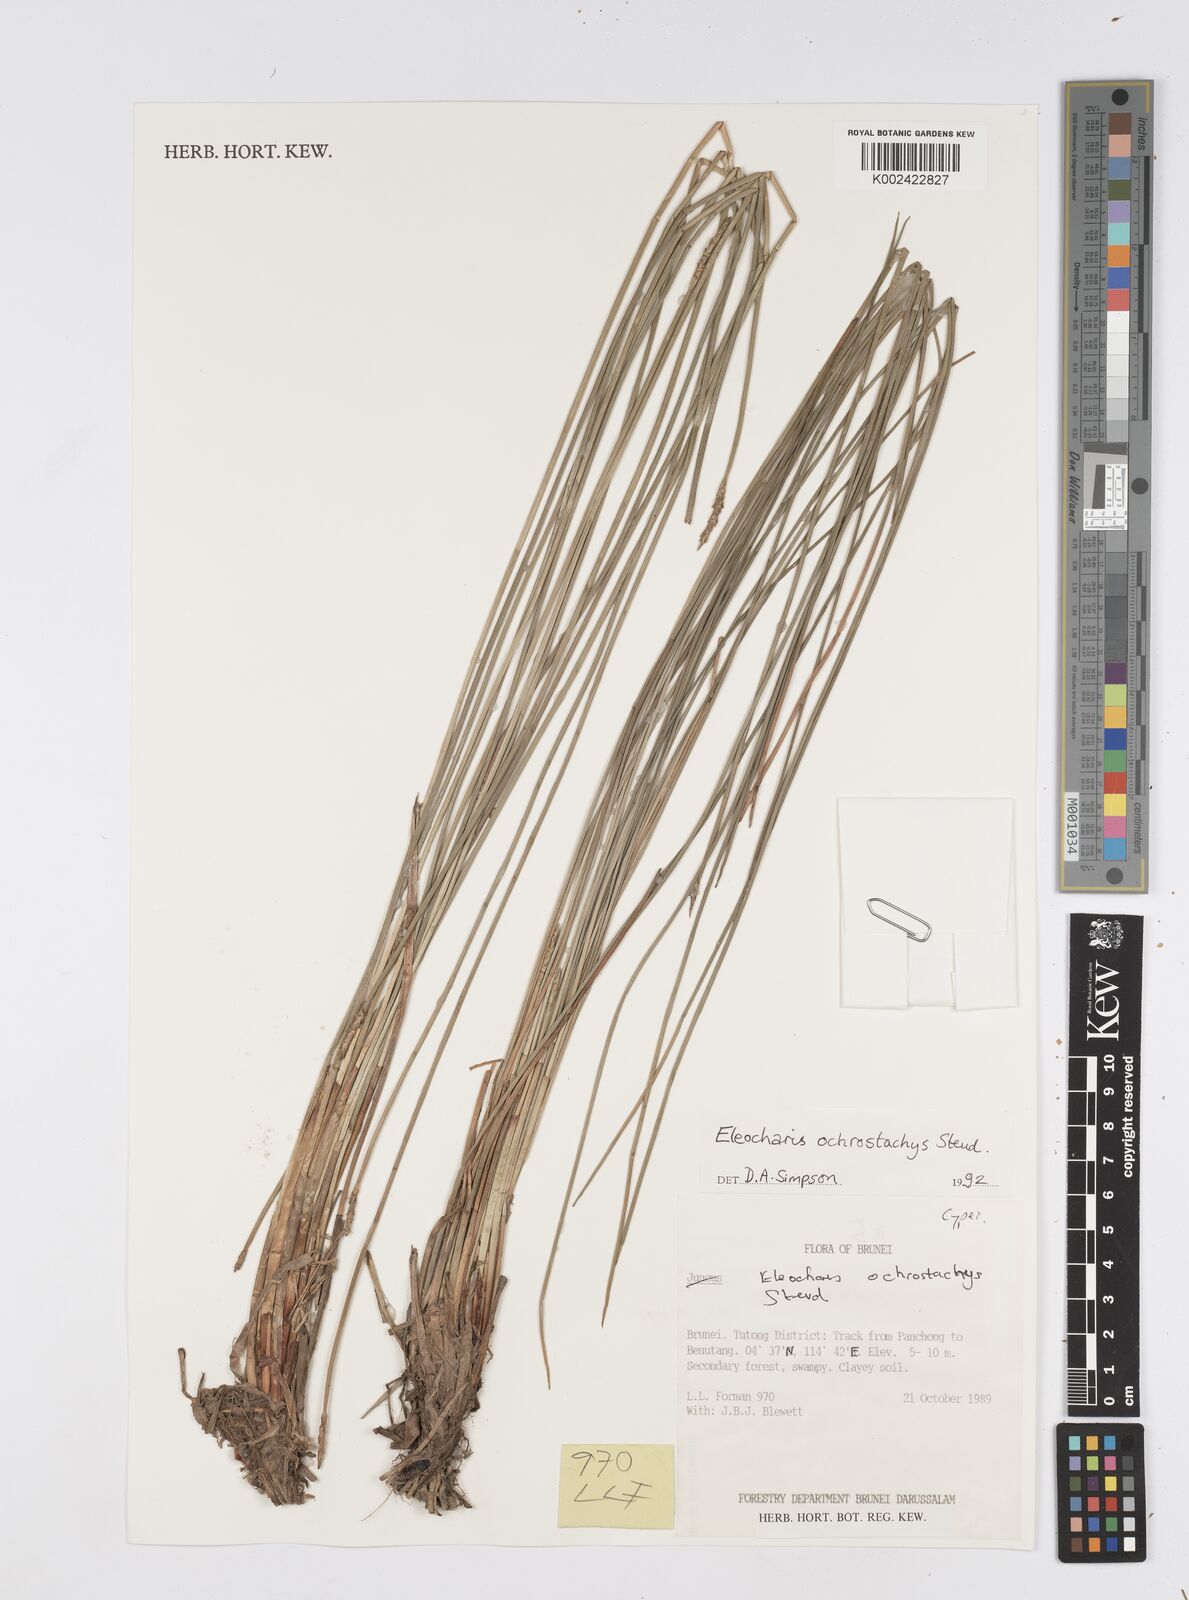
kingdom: Plantae
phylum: Tracheophyta
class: Liliopsida
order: Poales
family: Cyperaceae
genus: Eleocharis
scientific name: Eleocharis ochrostachys
